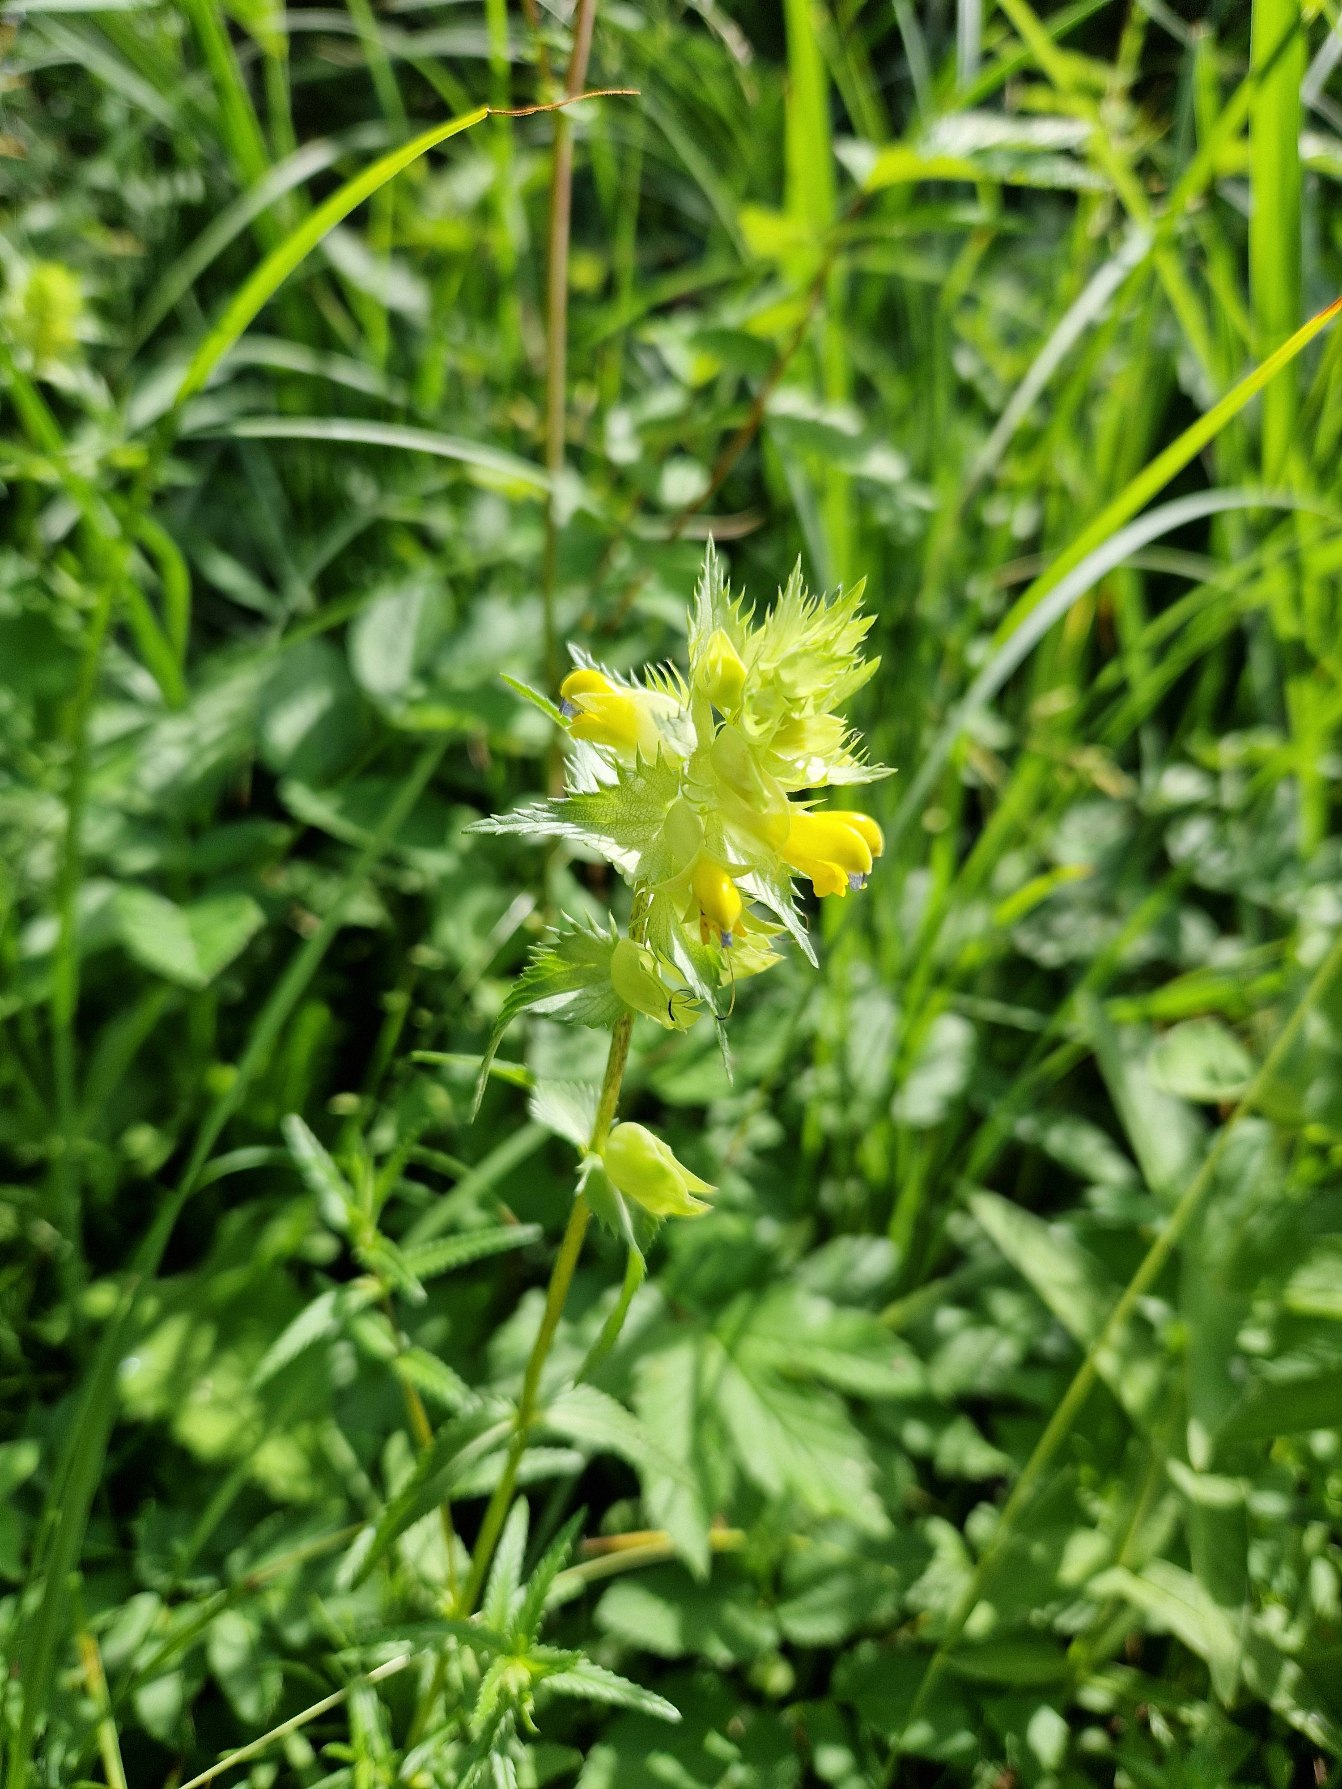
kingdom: Plantae
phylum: Tracheophyta
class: Magnoliopsida
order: Lamiales
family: Orobanchaceae
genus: Rhinanthus
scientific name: Rhinanthus
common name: Stor skjaller
